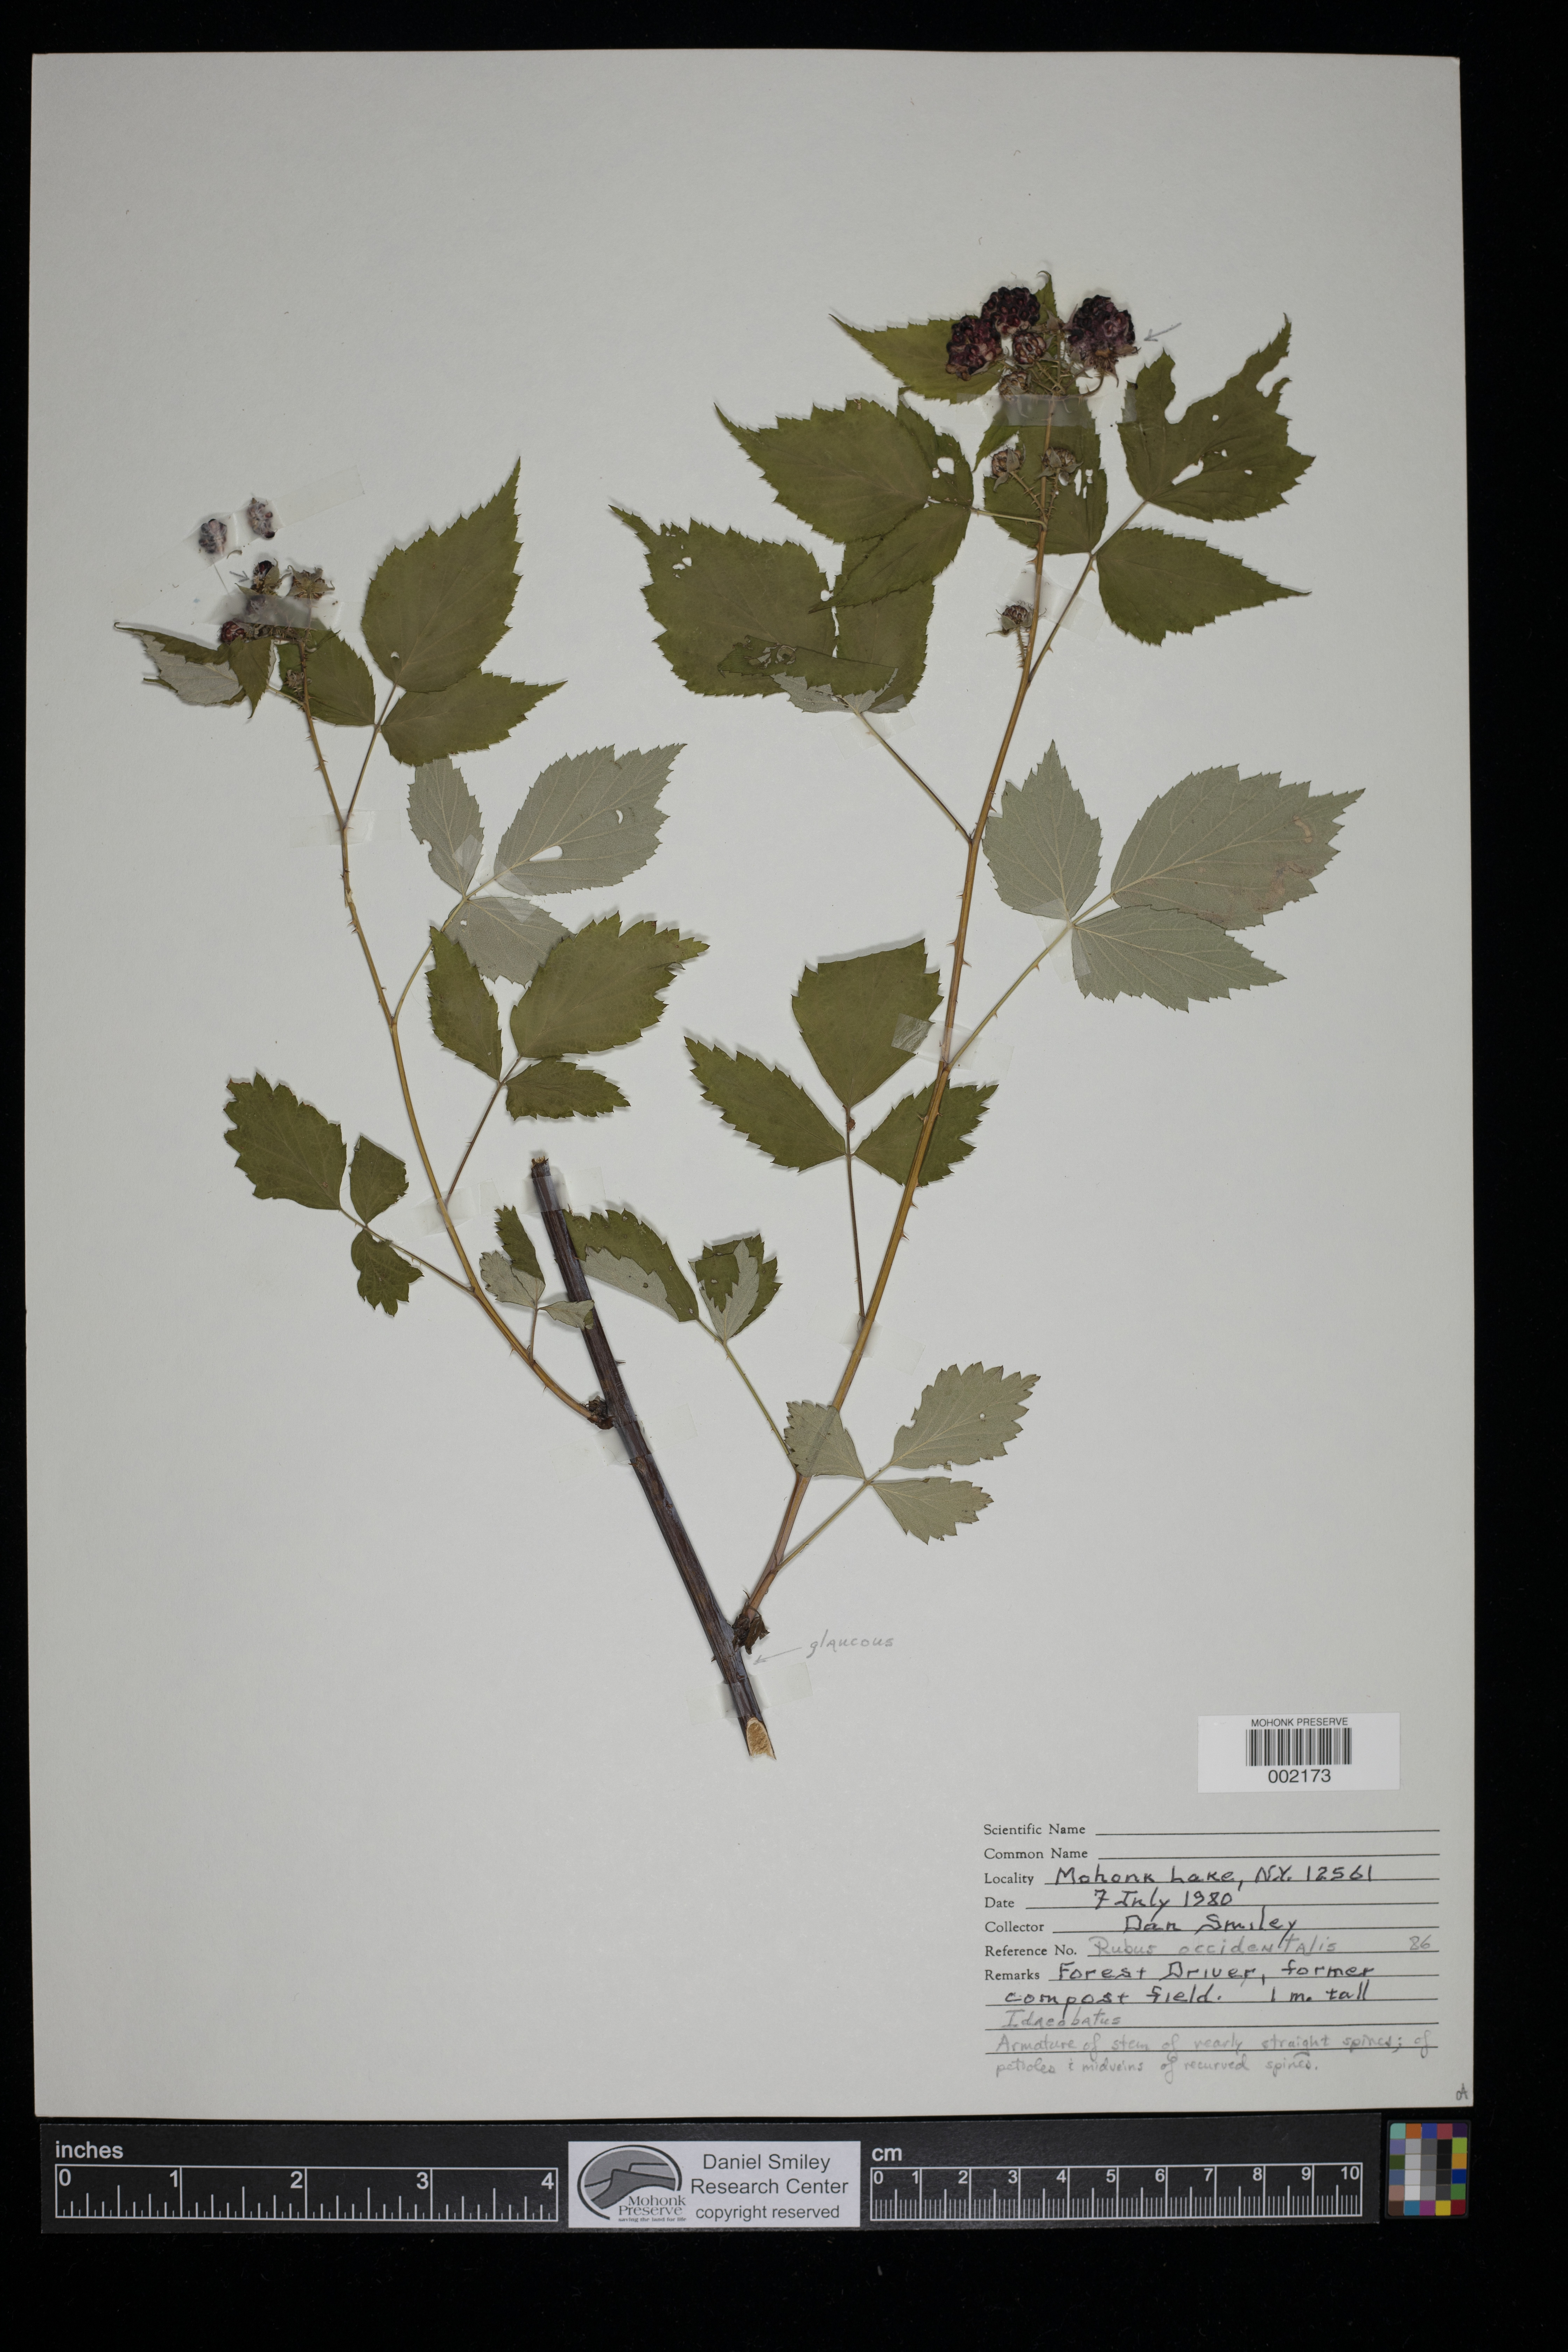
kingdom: Plantae
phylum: Tracheophyta
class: Magnoliopsida
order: Rosales
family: Rosaceae
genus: Rubus
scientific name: Rubus occidentalis
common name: Black raspberry
